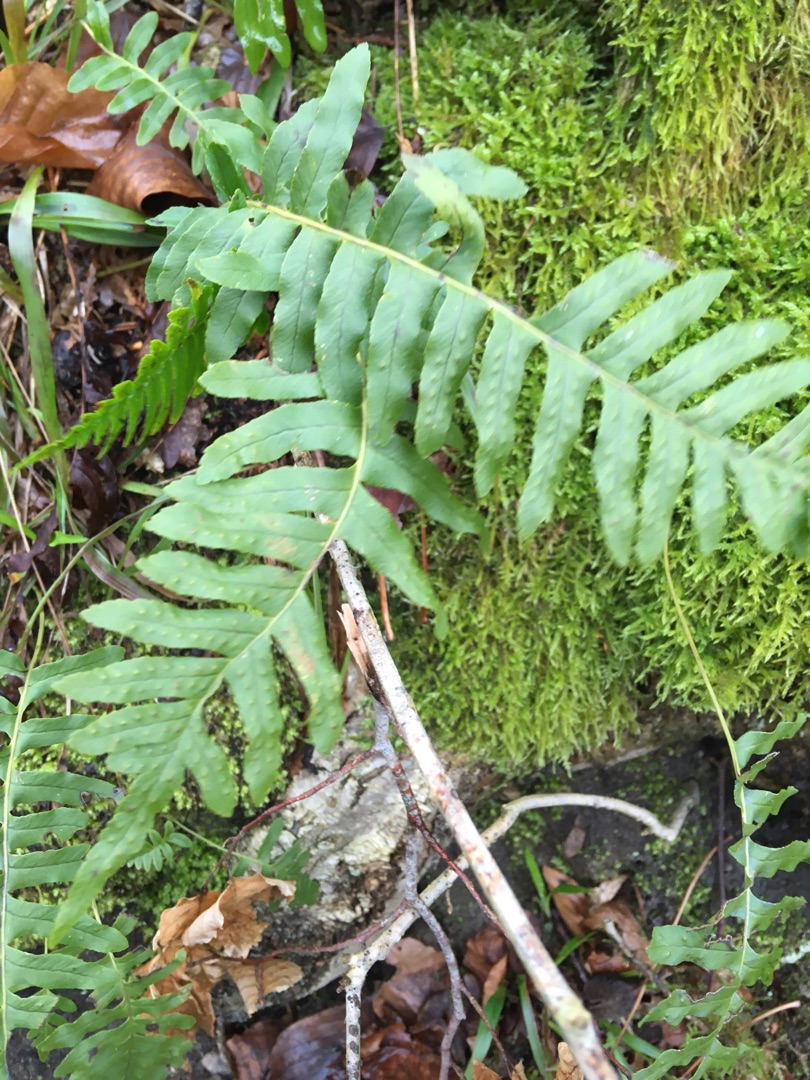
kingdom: Plantae
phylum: Tracheophyta
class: Polypodiopsida
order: Polypodiales
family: Polypodiaceae
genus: Polypodium
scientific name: Polypodium vulgare
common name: Almindelig engelsød
